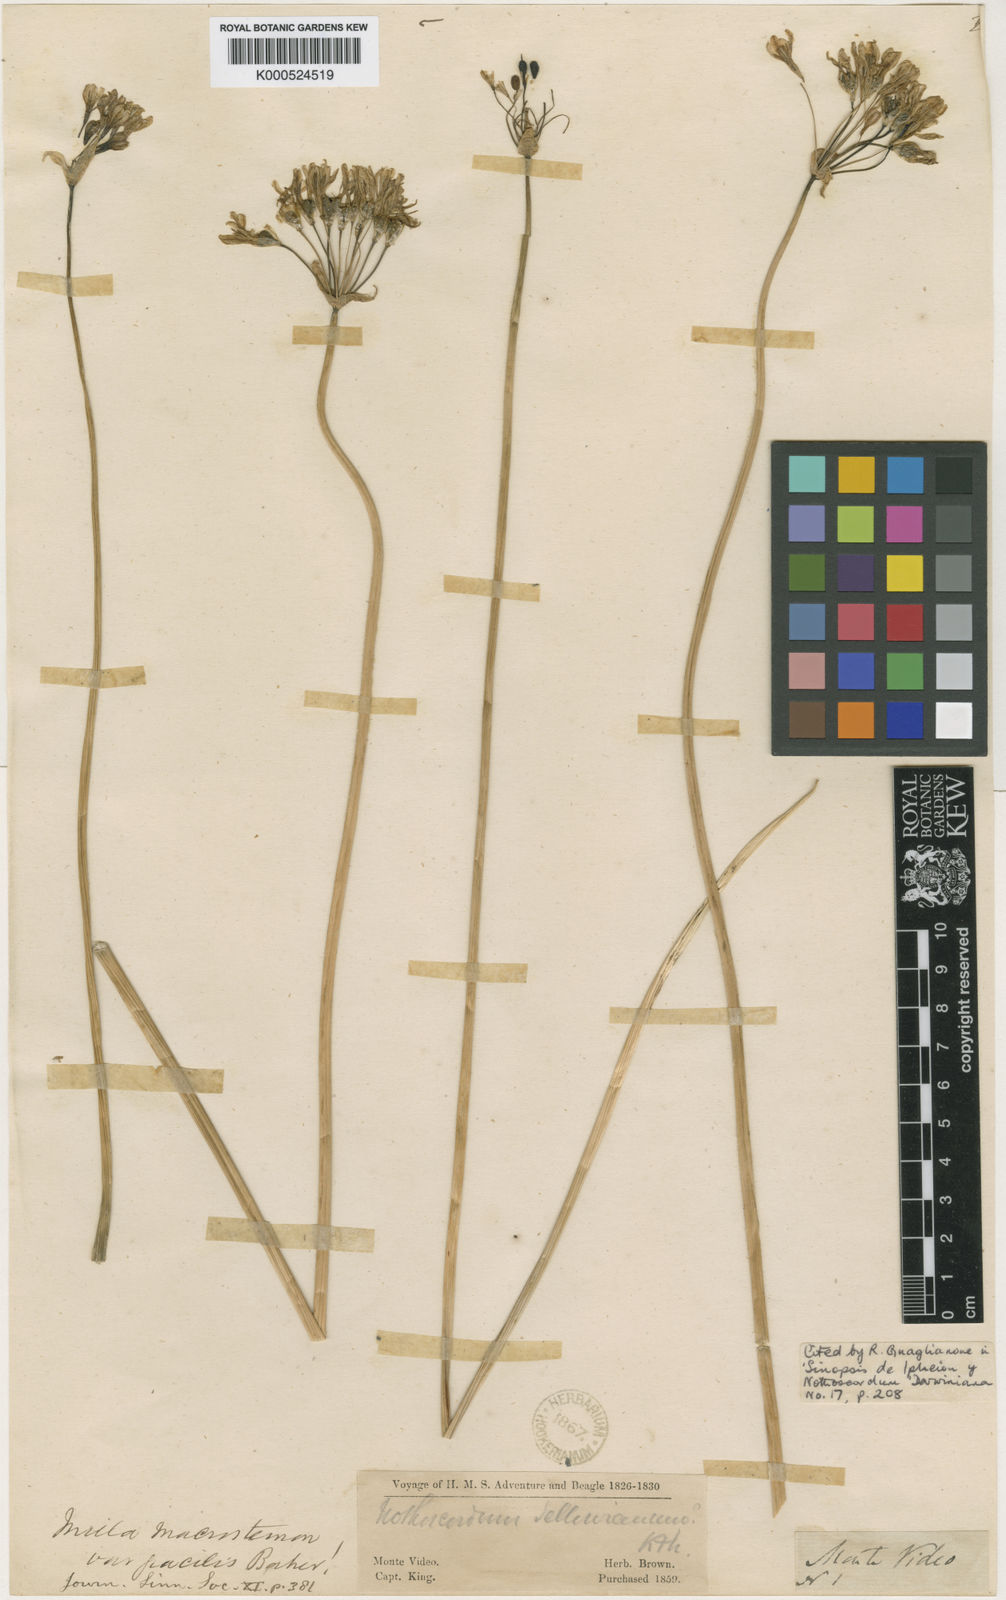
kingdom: Plantae
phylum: Tracheophyta
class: Liliopsida
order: Asparagales
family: Amaryllidaceae
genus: Nothoscordum
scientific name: Nothoscordum gracile
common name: Slender false garlic
